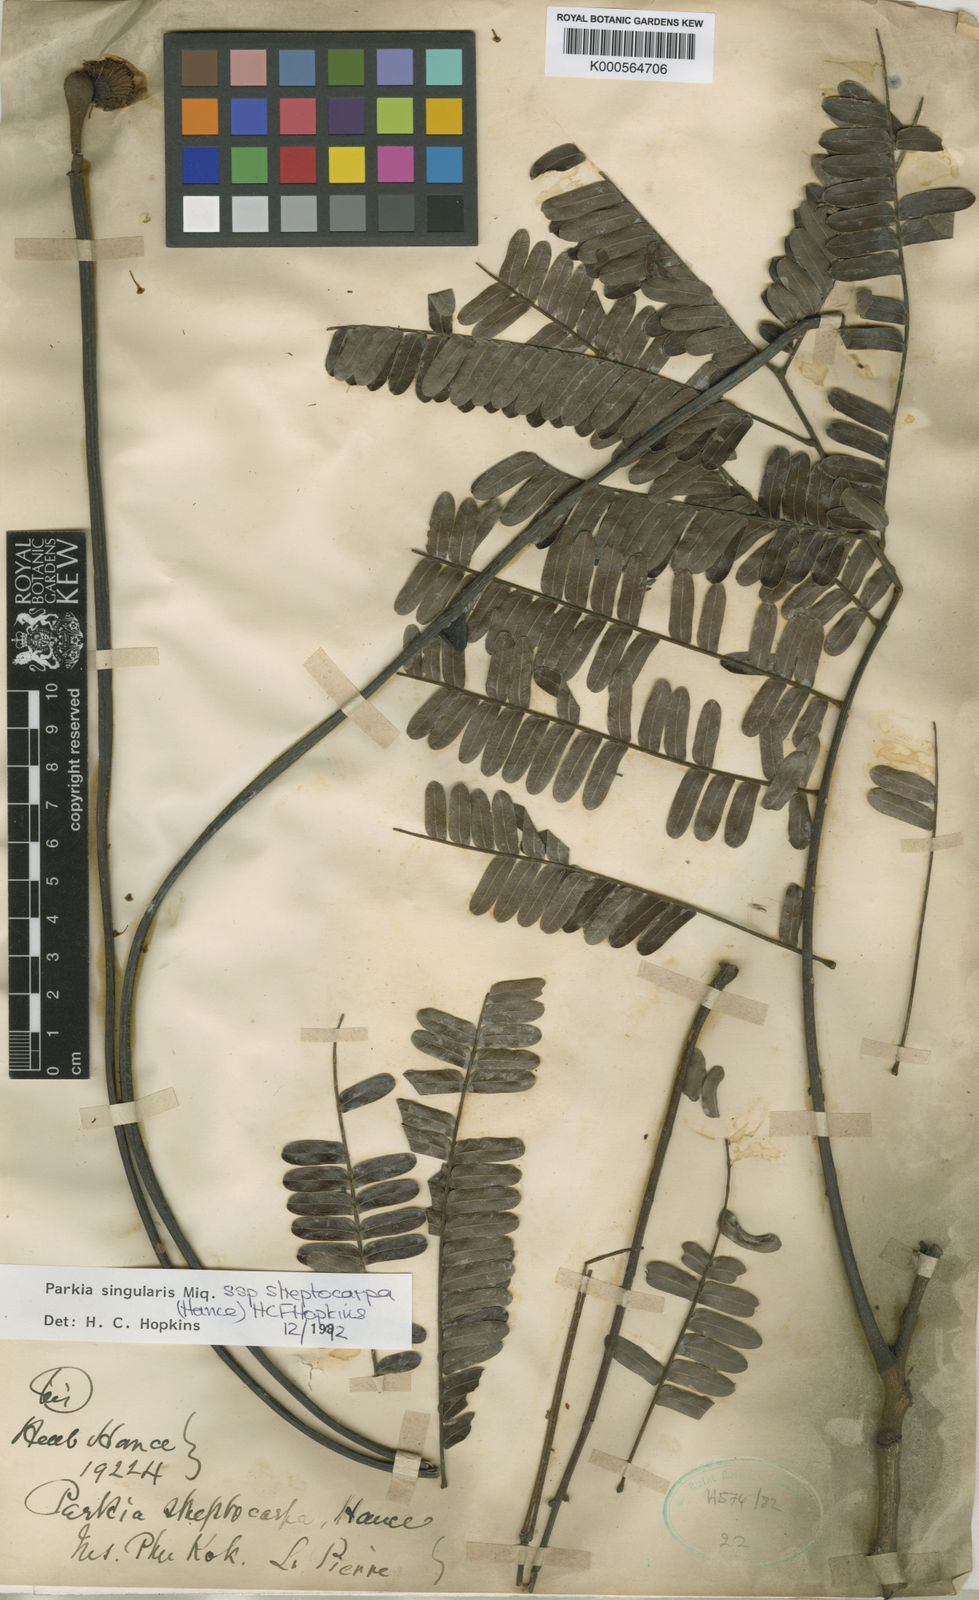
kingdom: Plantae
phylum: Tracheophyta
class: Magnoliopsida
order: Fabales
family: Fabaceae
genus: Parkia
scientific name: Parkia sumatrana
